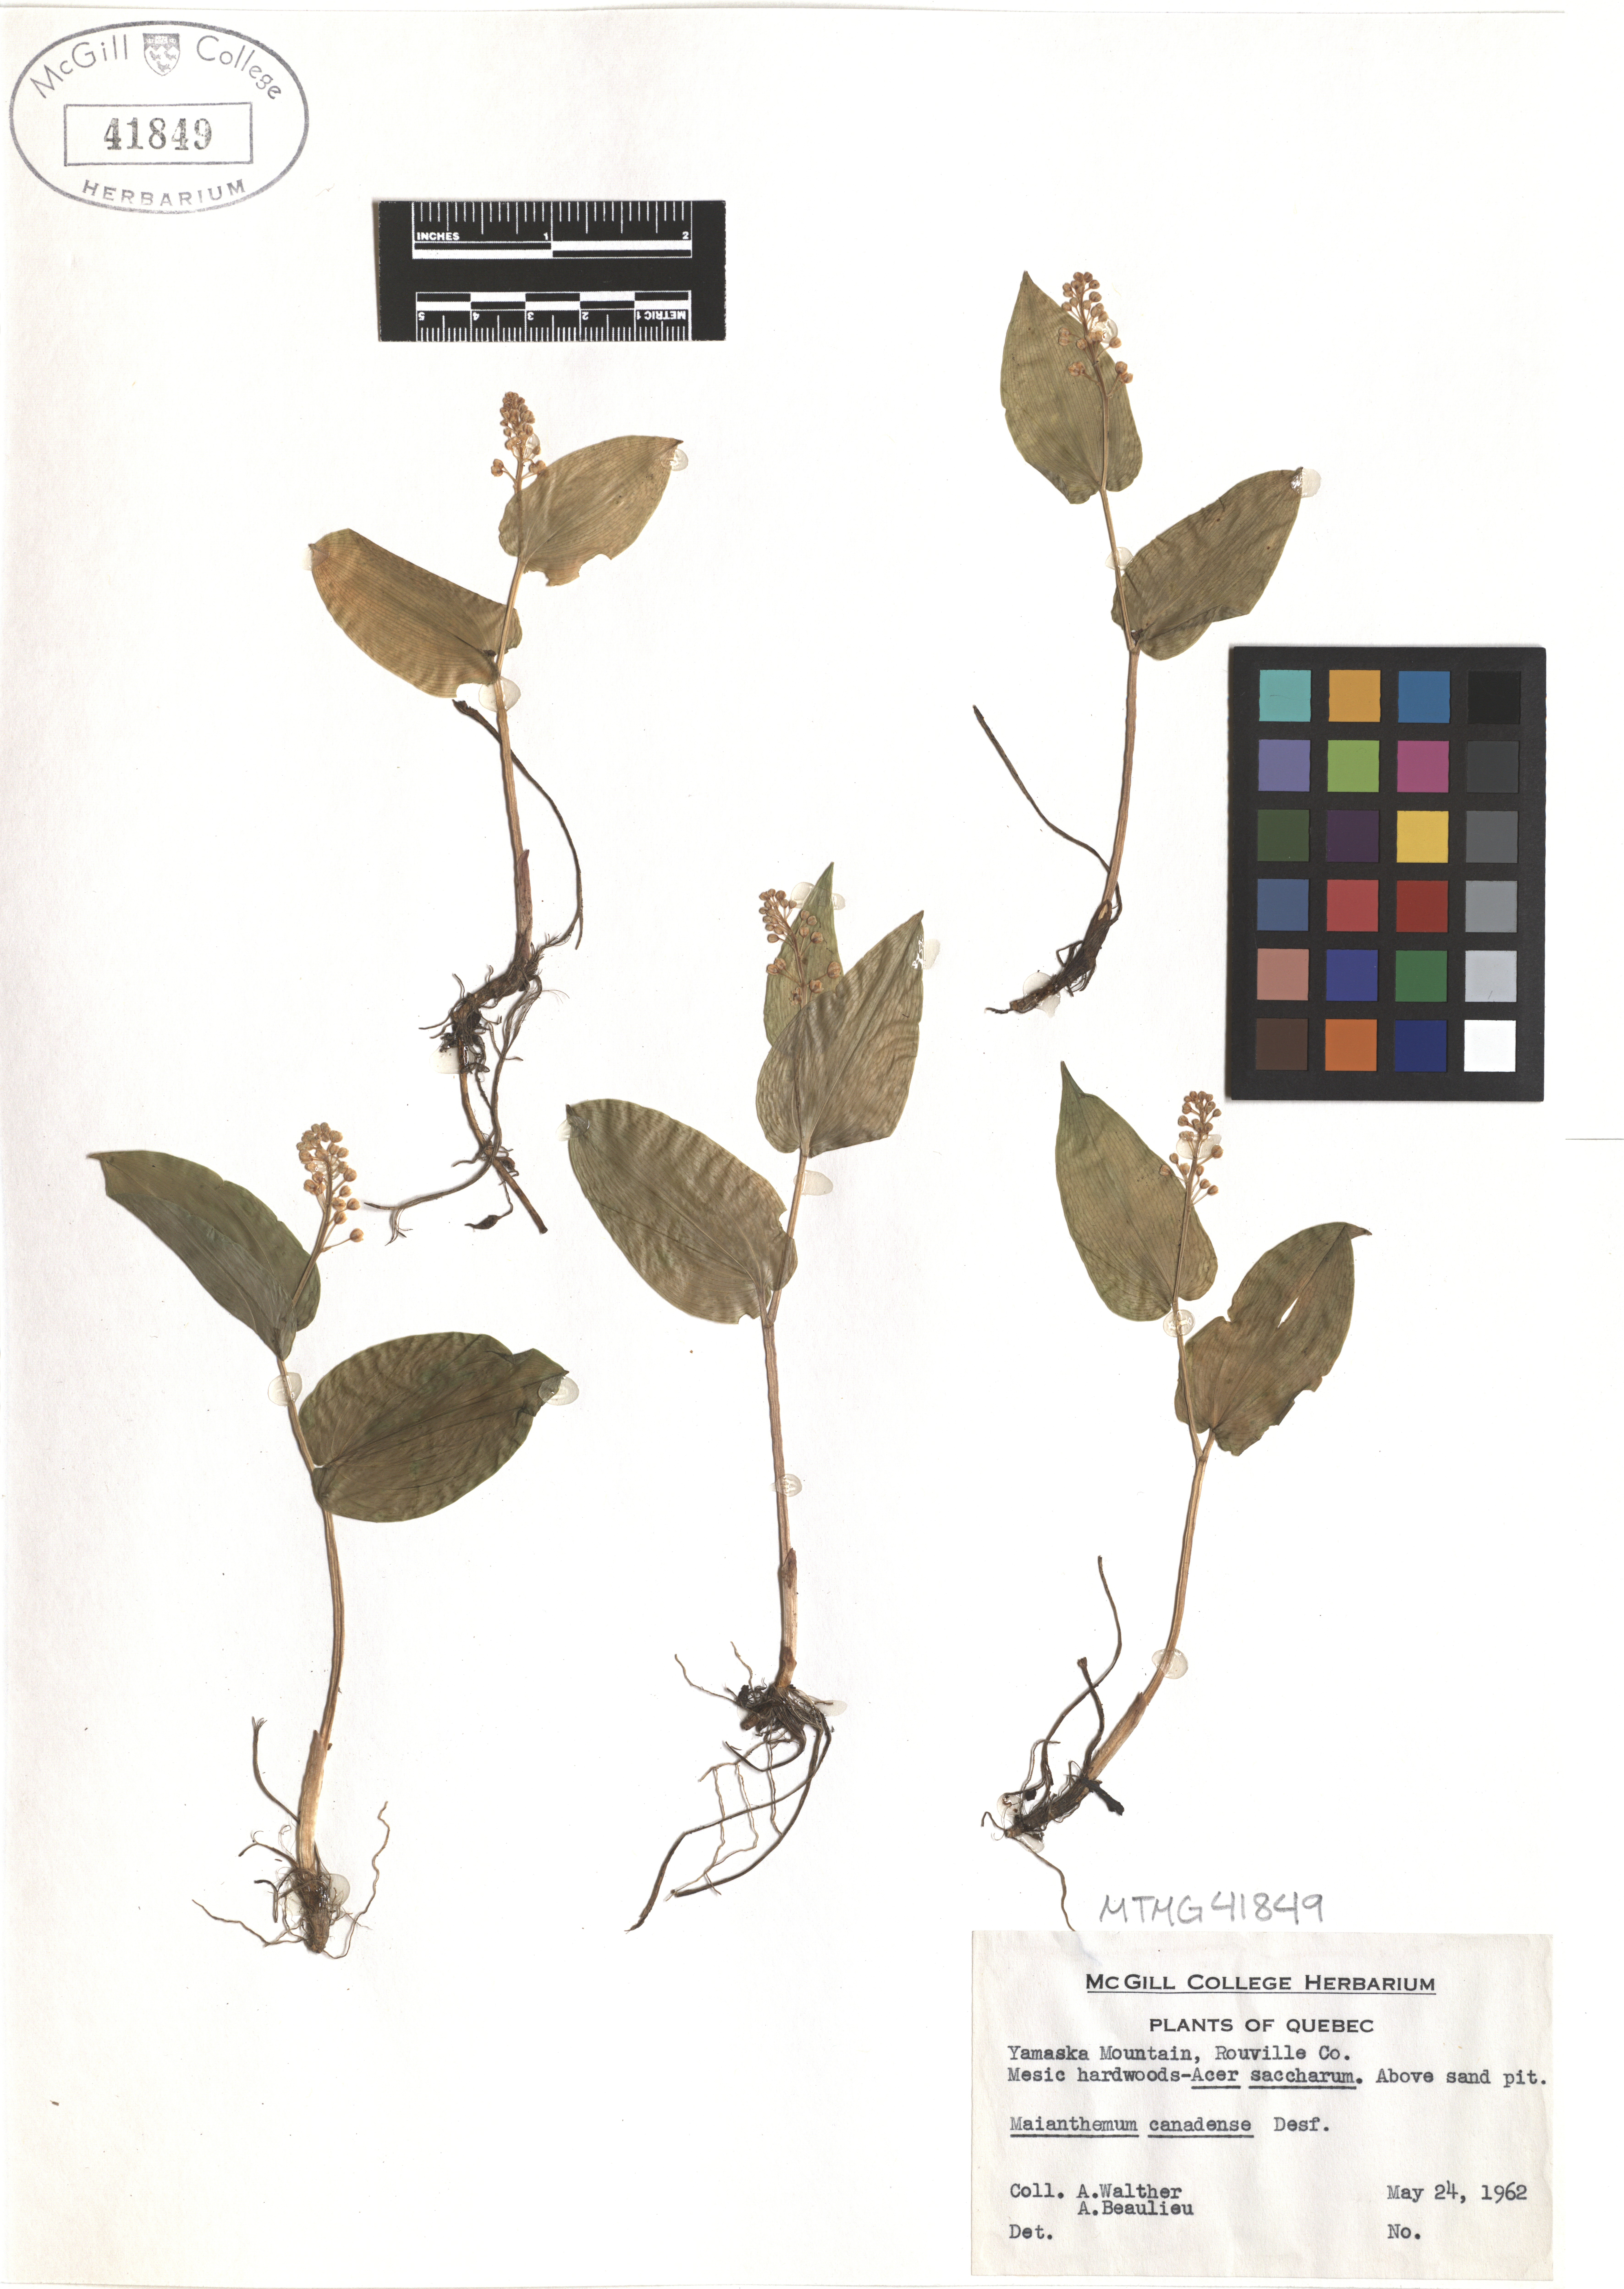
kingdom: Plantae
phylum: Tracheophyta
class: Liliopsida
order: Asparagales
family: Asparagaceae
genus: Maianthemum
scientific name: Maianthemum canadense
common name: False lily-of-the-valley
